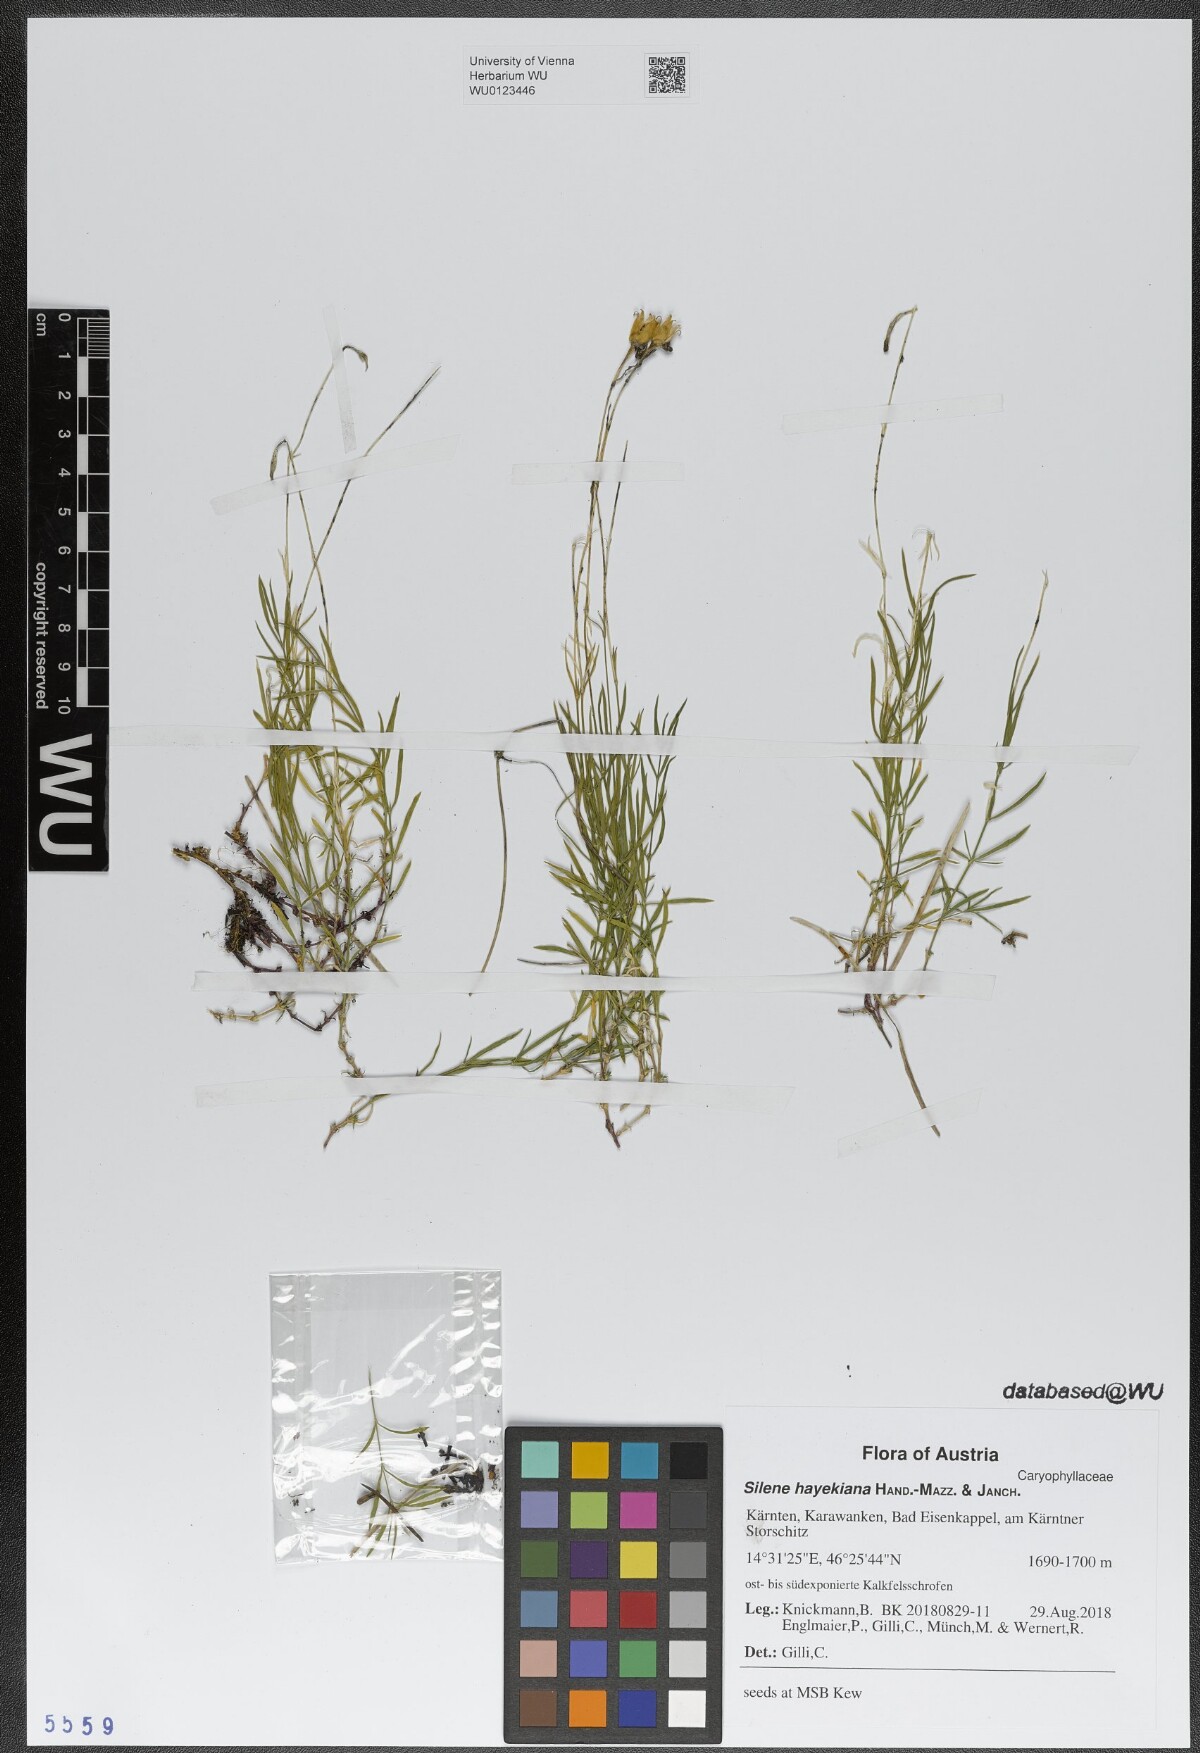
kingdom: Plantae
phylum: Tracheophyta
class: Magnoliopsida
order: Caryophyllales
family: Caryophyllaceae
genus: Silene
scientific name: Silene hayekiana
